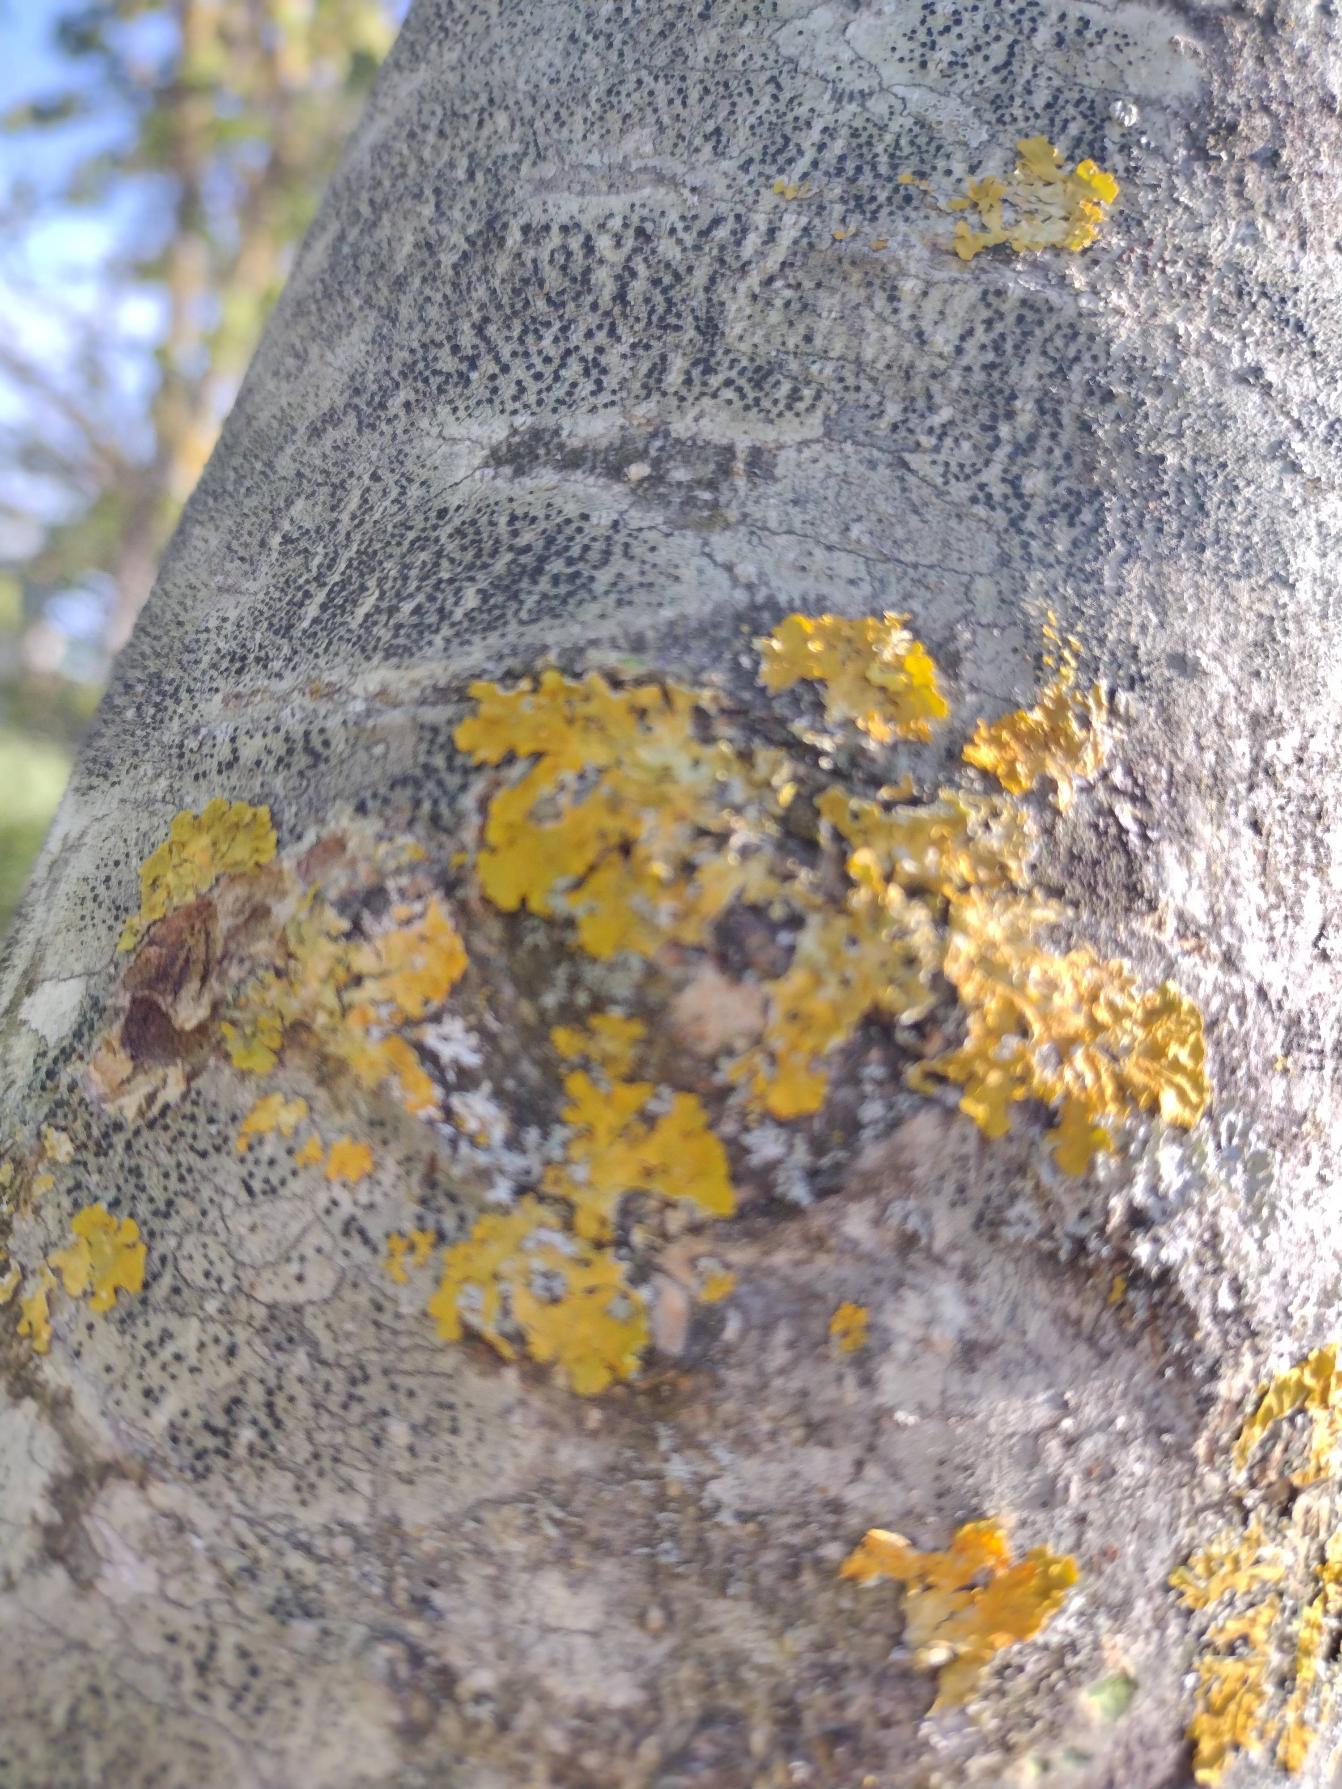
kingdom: Fungi
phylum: Ascomycota
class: Lecanoromycetes
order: Teloschistales
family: Teloschistaceae
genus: Xanthoria
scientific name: Xanthoria parietina
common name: Almindelig væggelav
